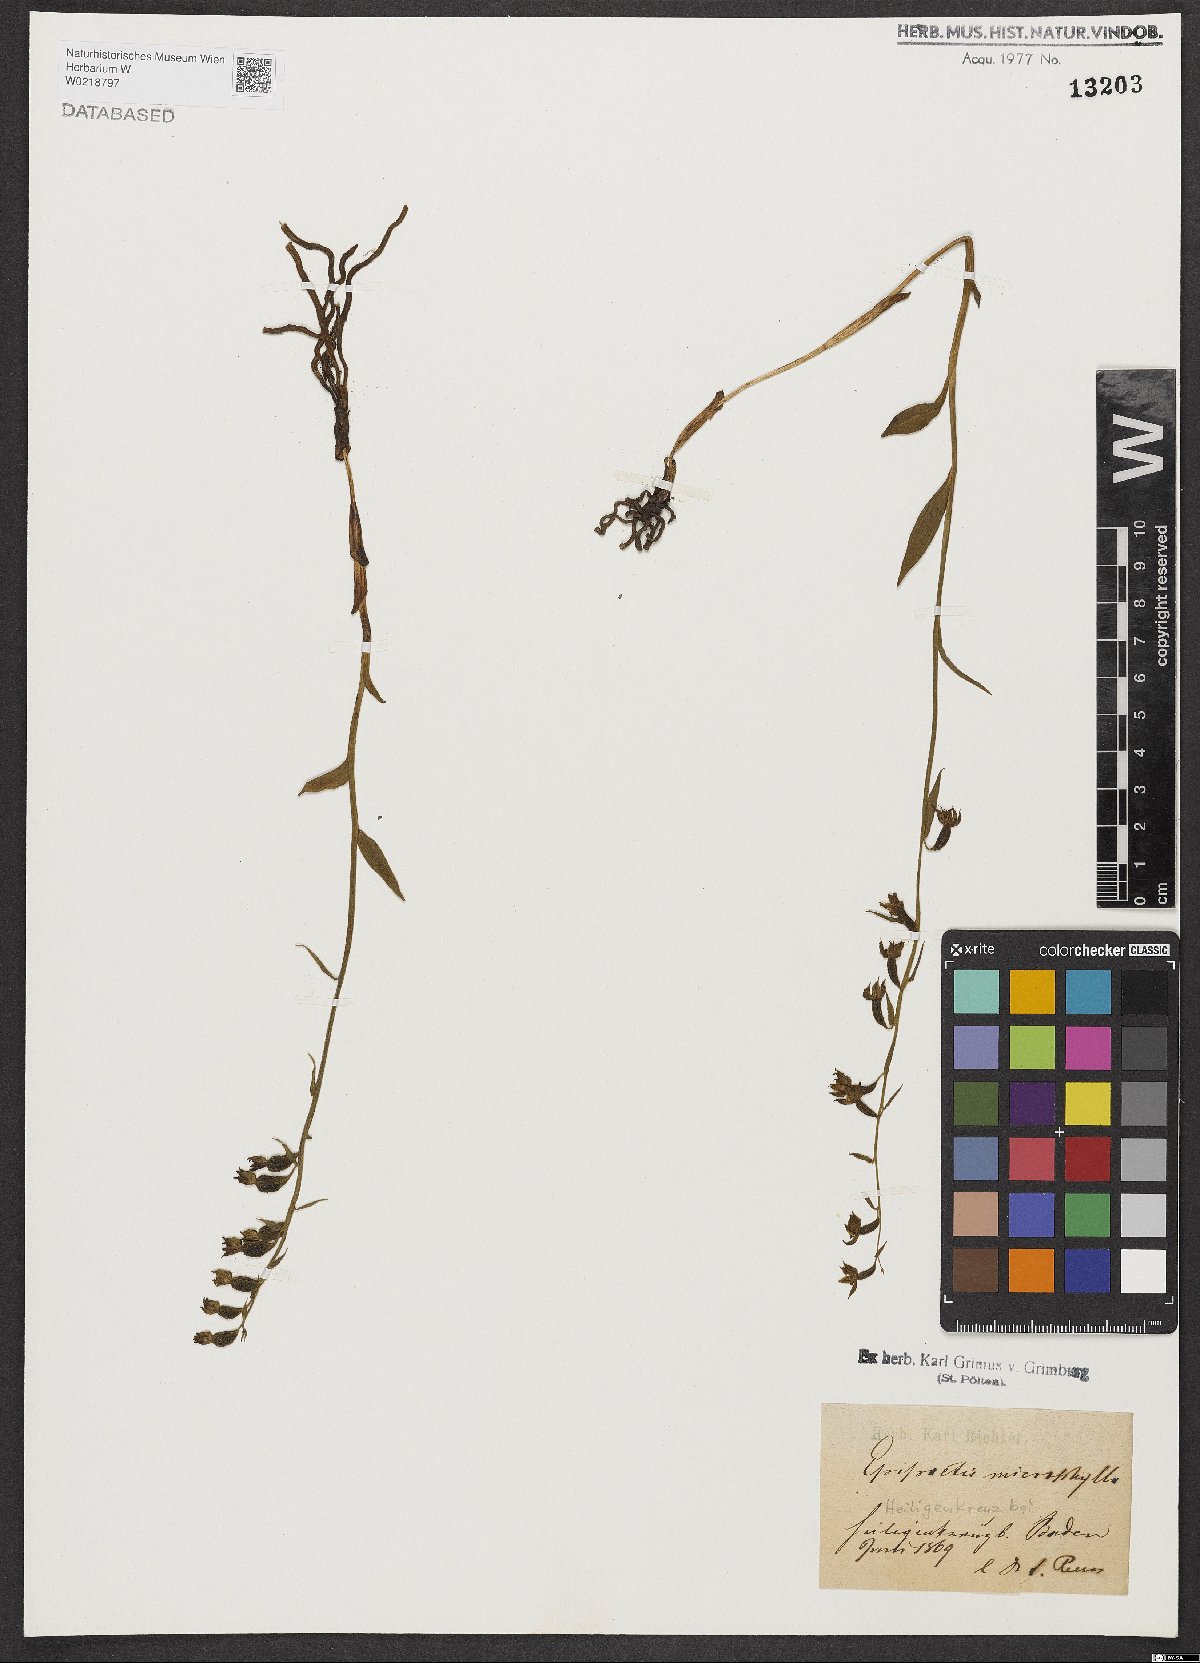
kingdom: Plantae
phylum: Tracheophyta
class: Liliopsida
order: Asparagales
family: Orchidaceae
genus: Epipactis
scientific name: Epipactis microphylla
